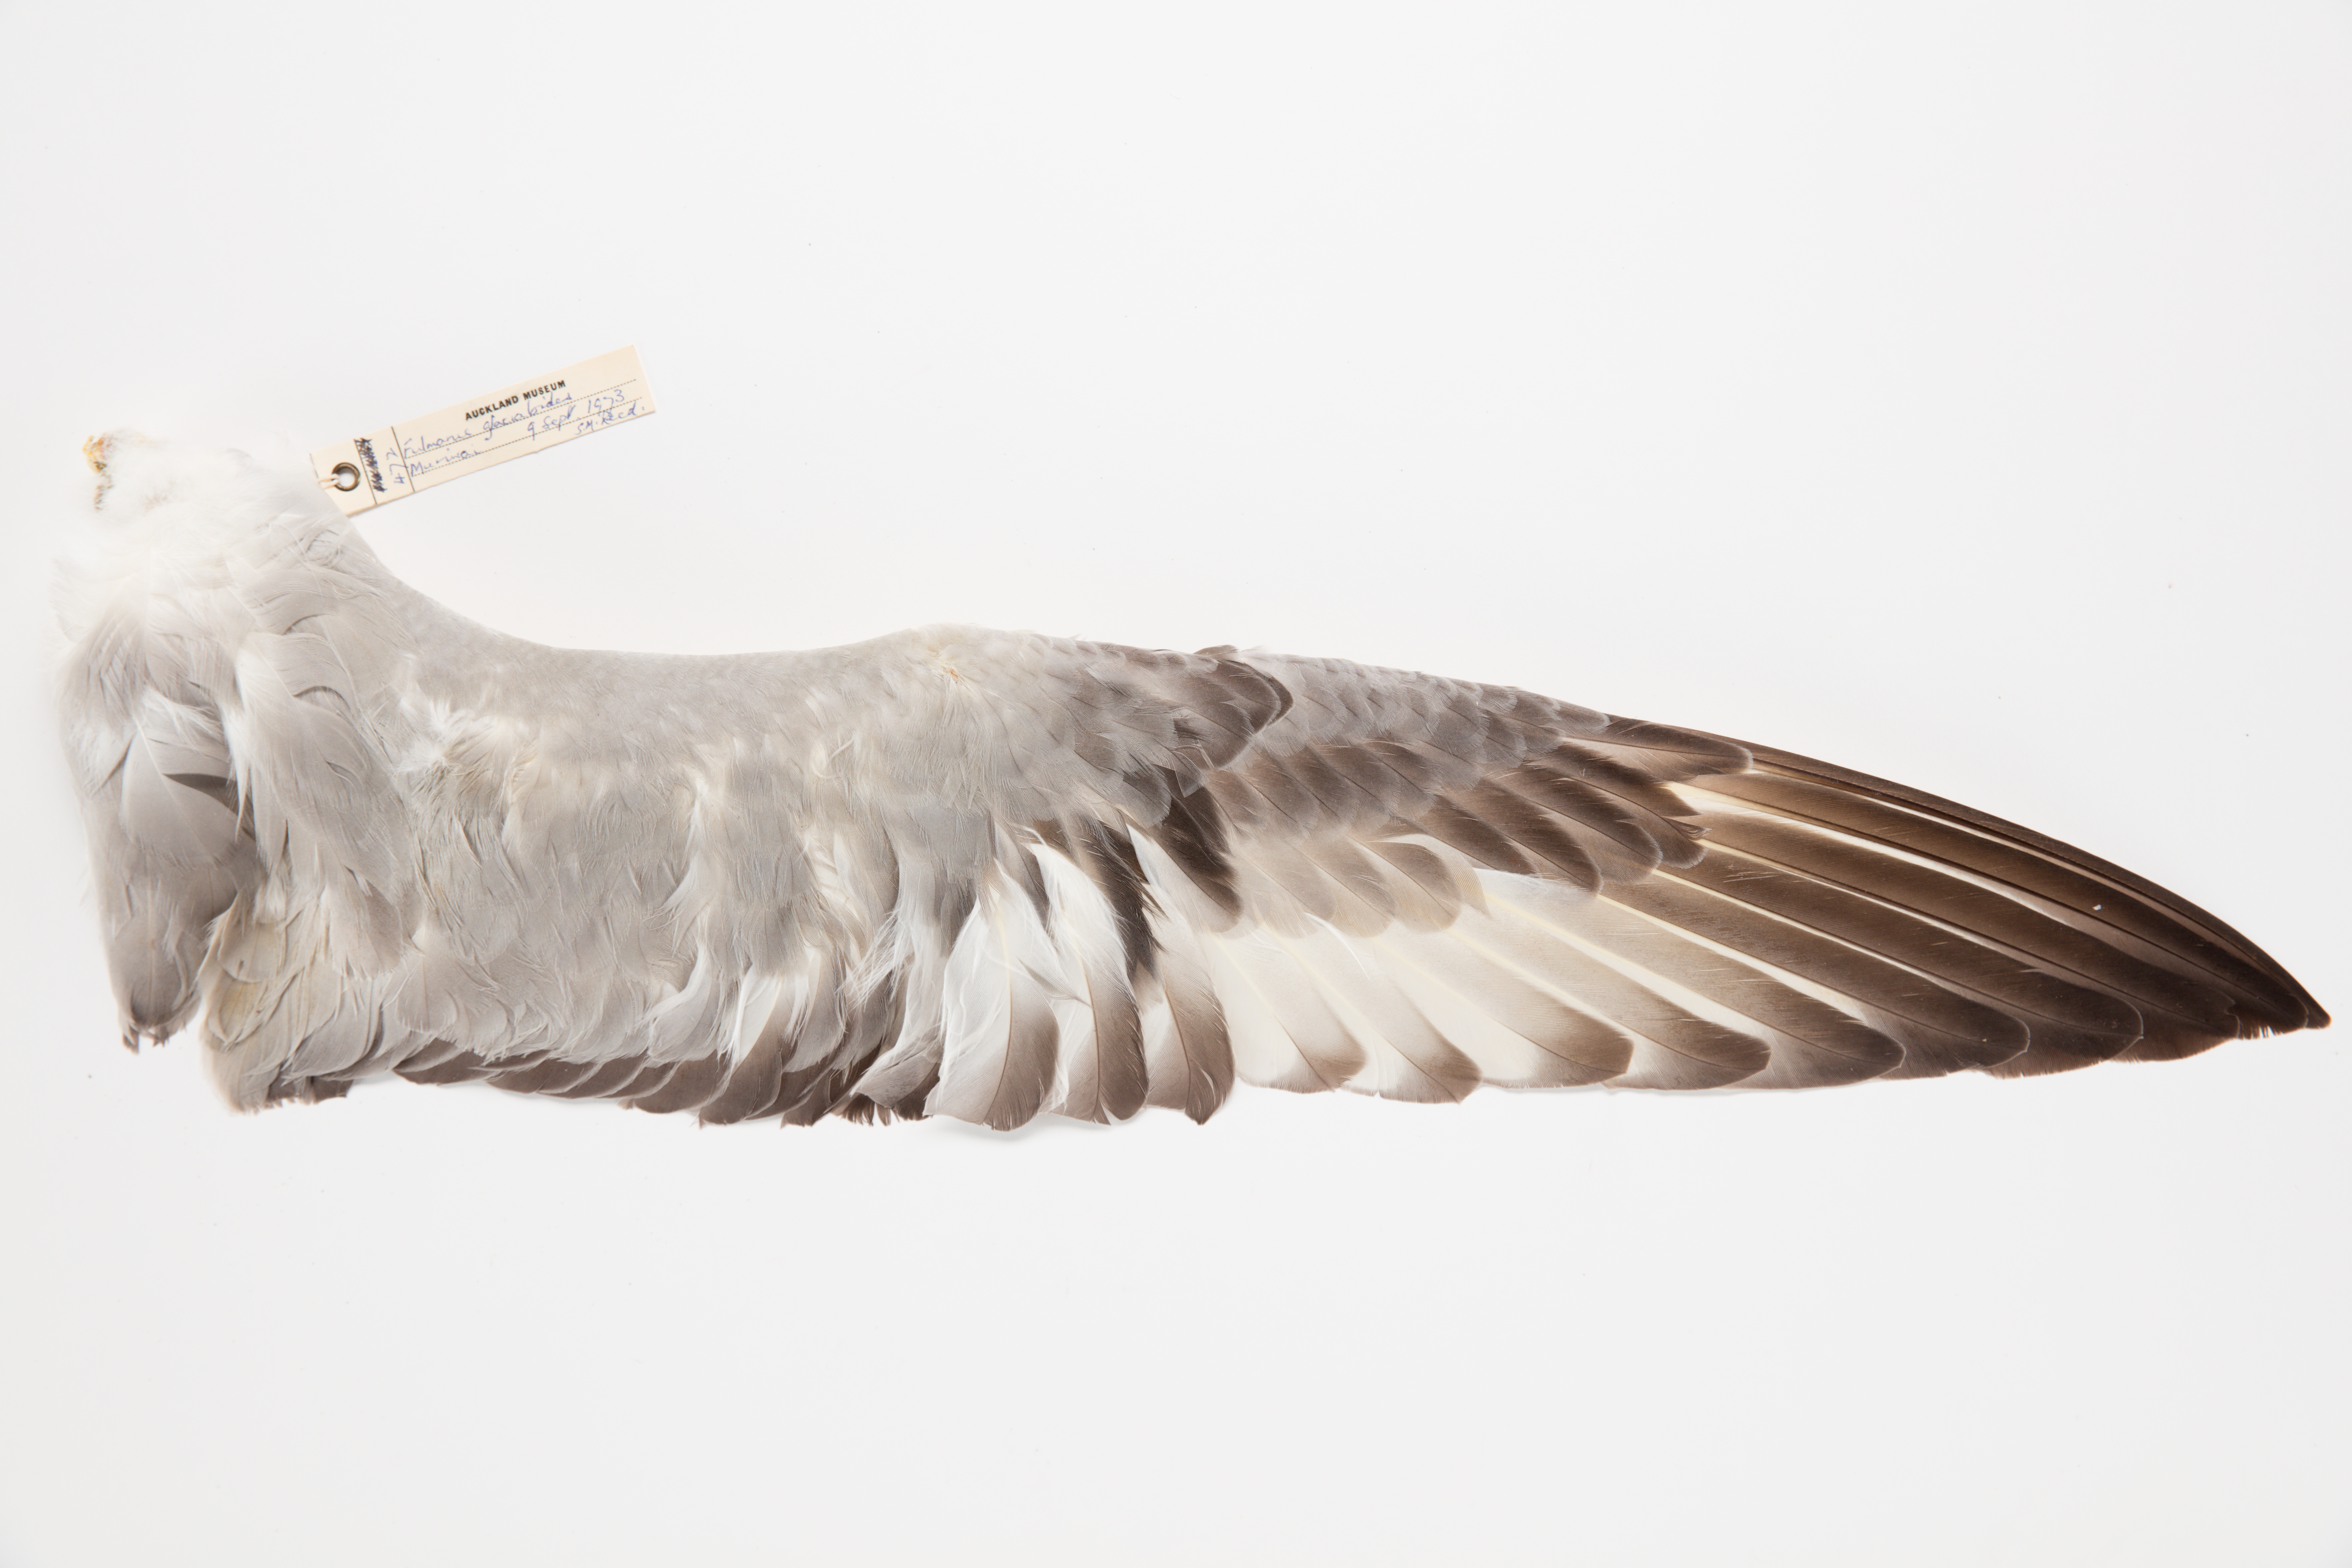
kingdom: Animalia
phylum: Chordata
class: Aves
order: Procellariiformes
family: Procellariidae
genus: Fulmarus
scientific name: Fulmarus glacialoides
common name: Southern fulmar
